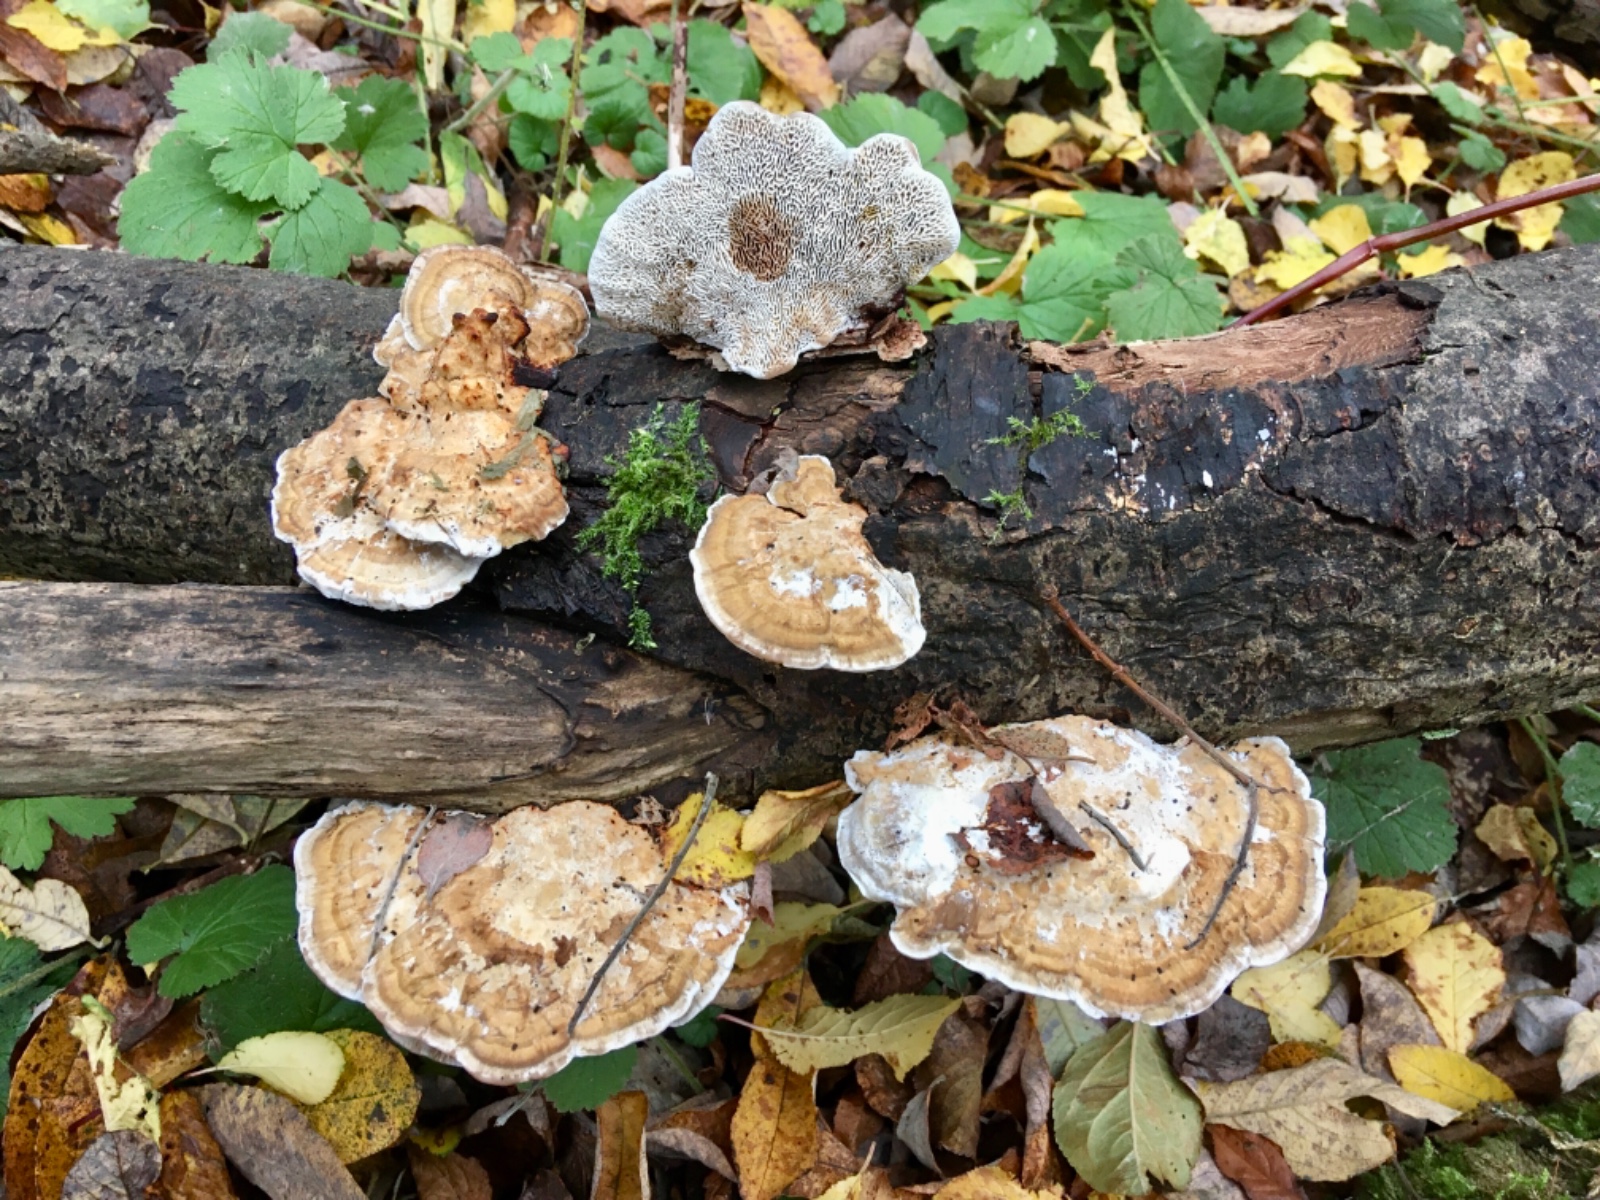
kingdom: Fungi
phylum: Basidiomycota
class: Agaricomycetes
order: Polyporales
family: Polyporaceae
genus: Daedaleopsis
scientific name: Daedaleopsis confragosa
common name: rødmende læderporesvamp
